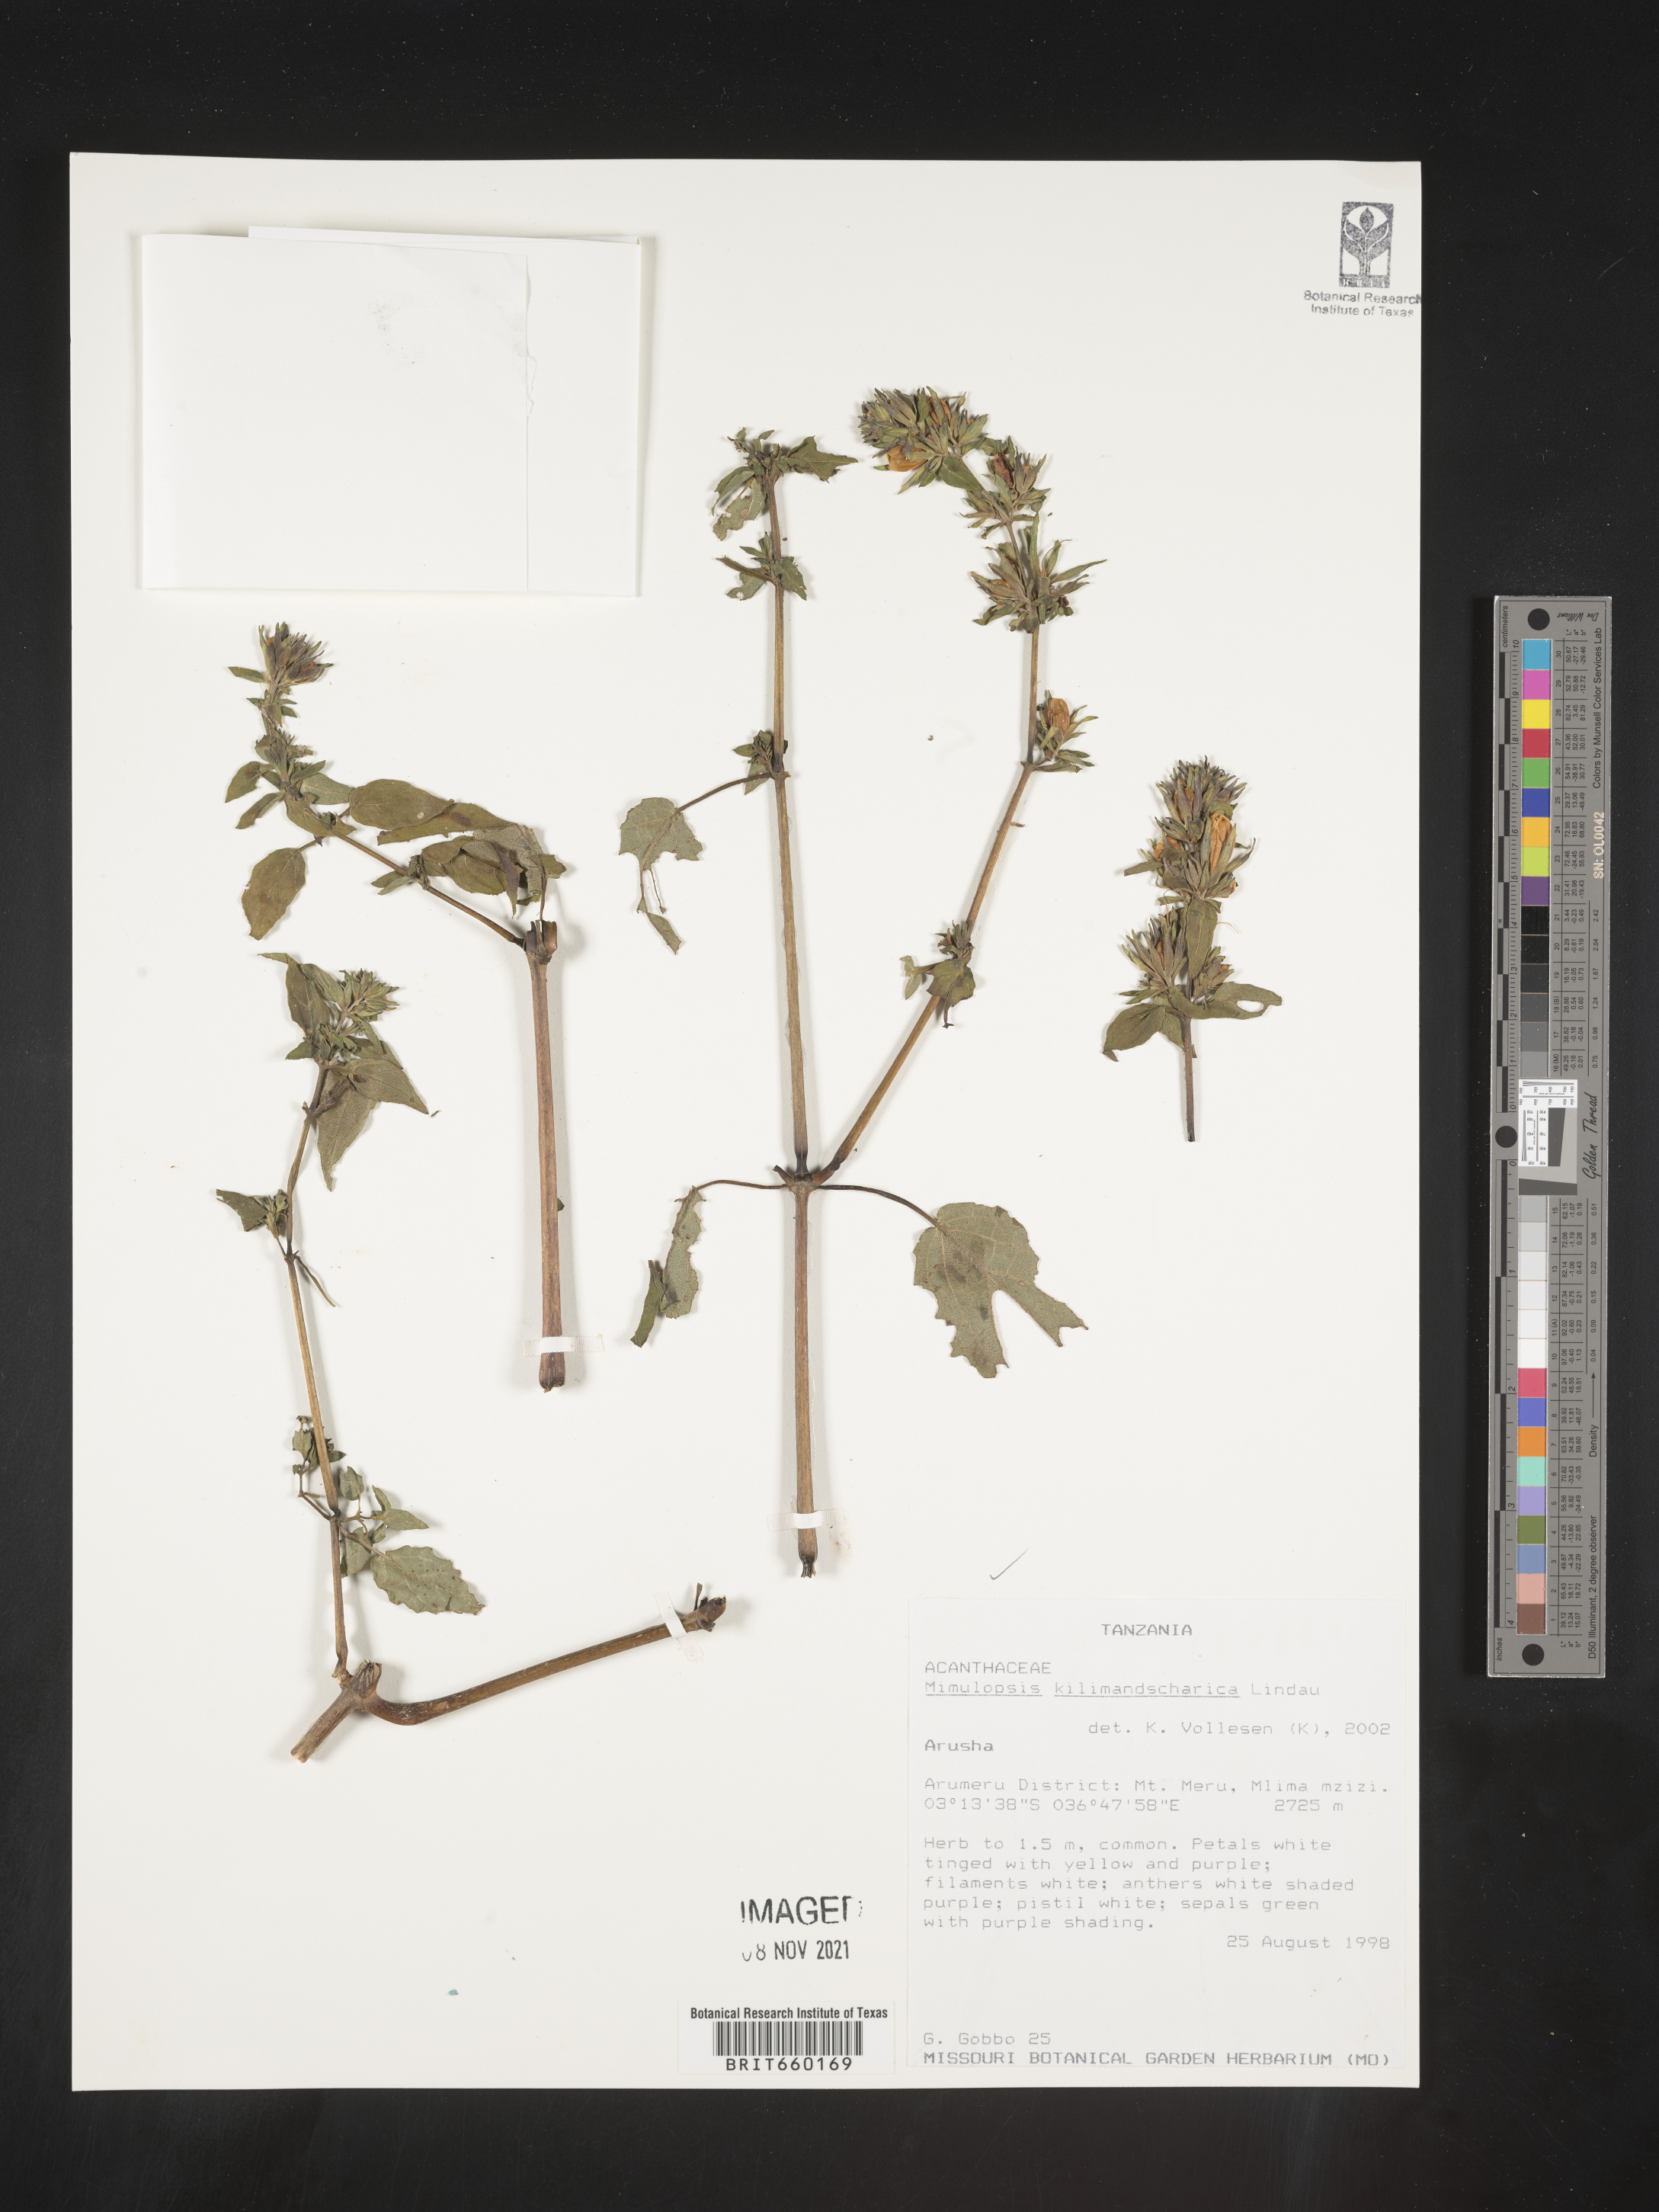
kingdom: Plantae
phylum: Tracheophyta
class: Magnoliopsida
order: Lamiales
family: Acanthaceae
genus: Mimulopsis
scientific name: Mimulopsis
